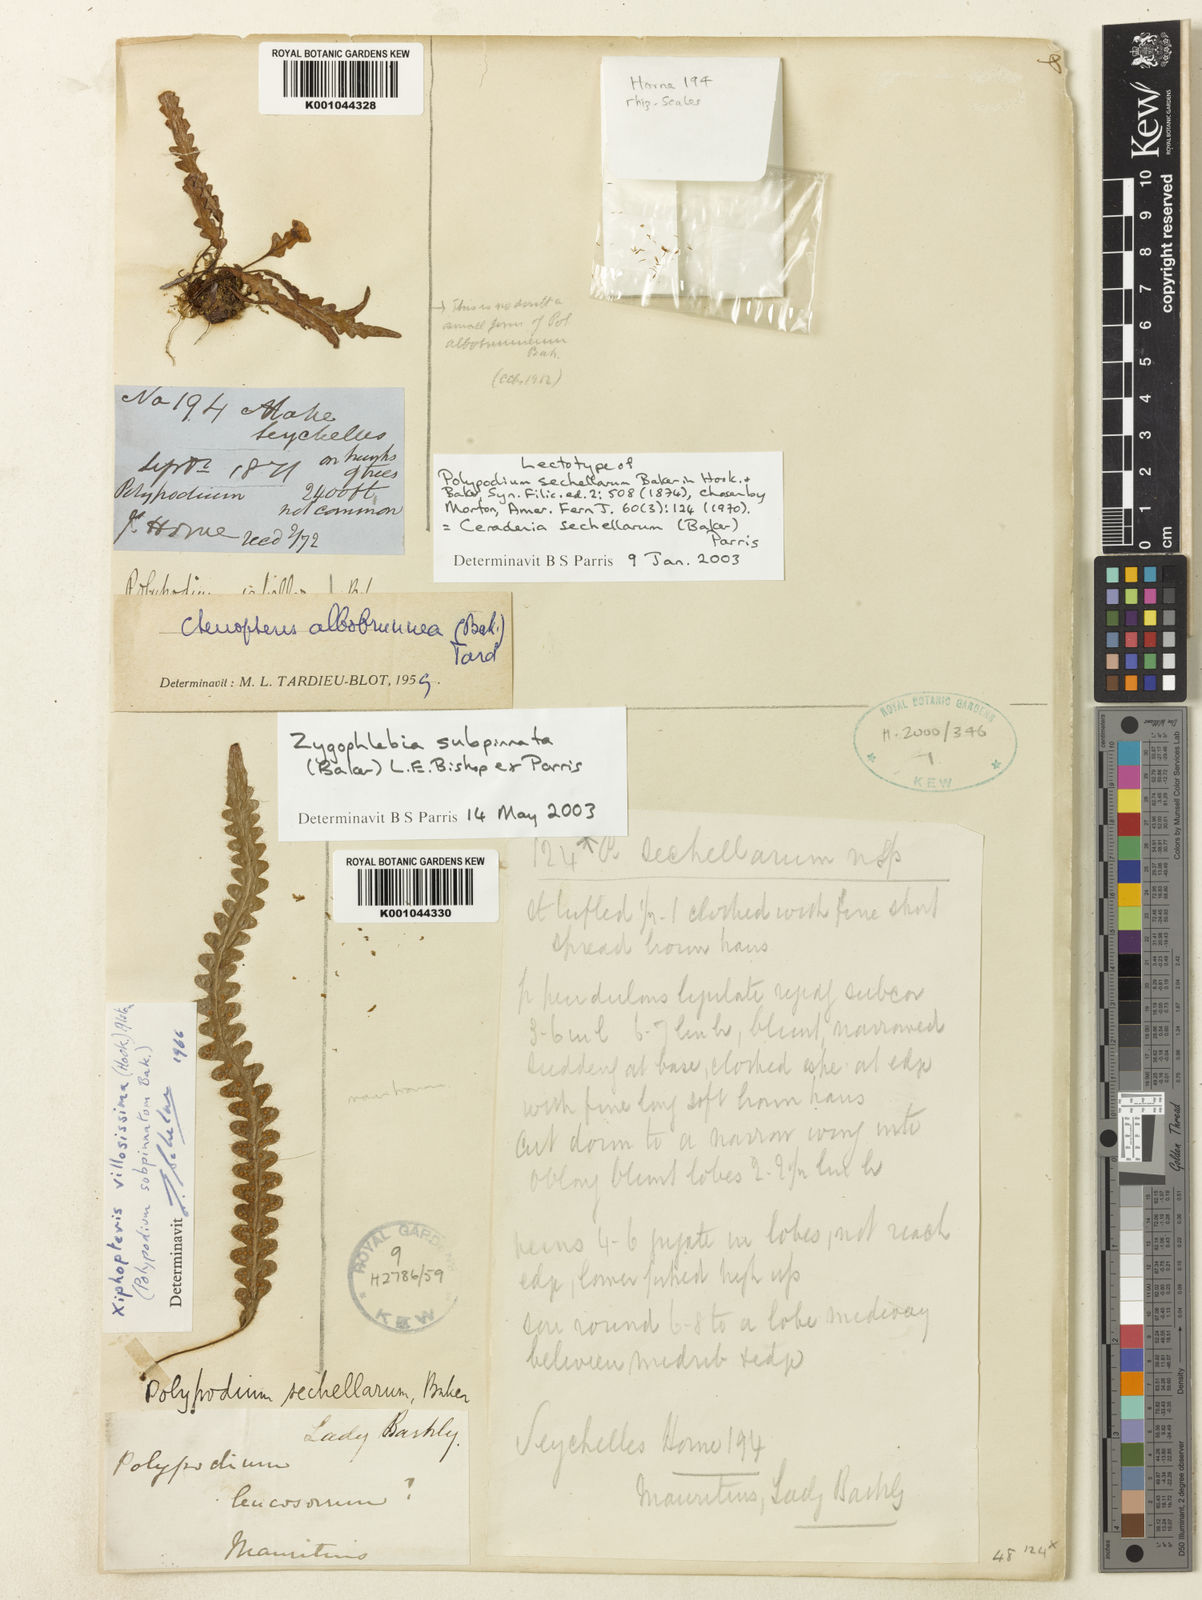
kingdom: Plantae
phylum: Tracheophyta
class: Polypodiopsida
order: Polypodiales
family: Polypodiaceae
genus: Ceradenia
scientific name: Ceradenia sechellarum
